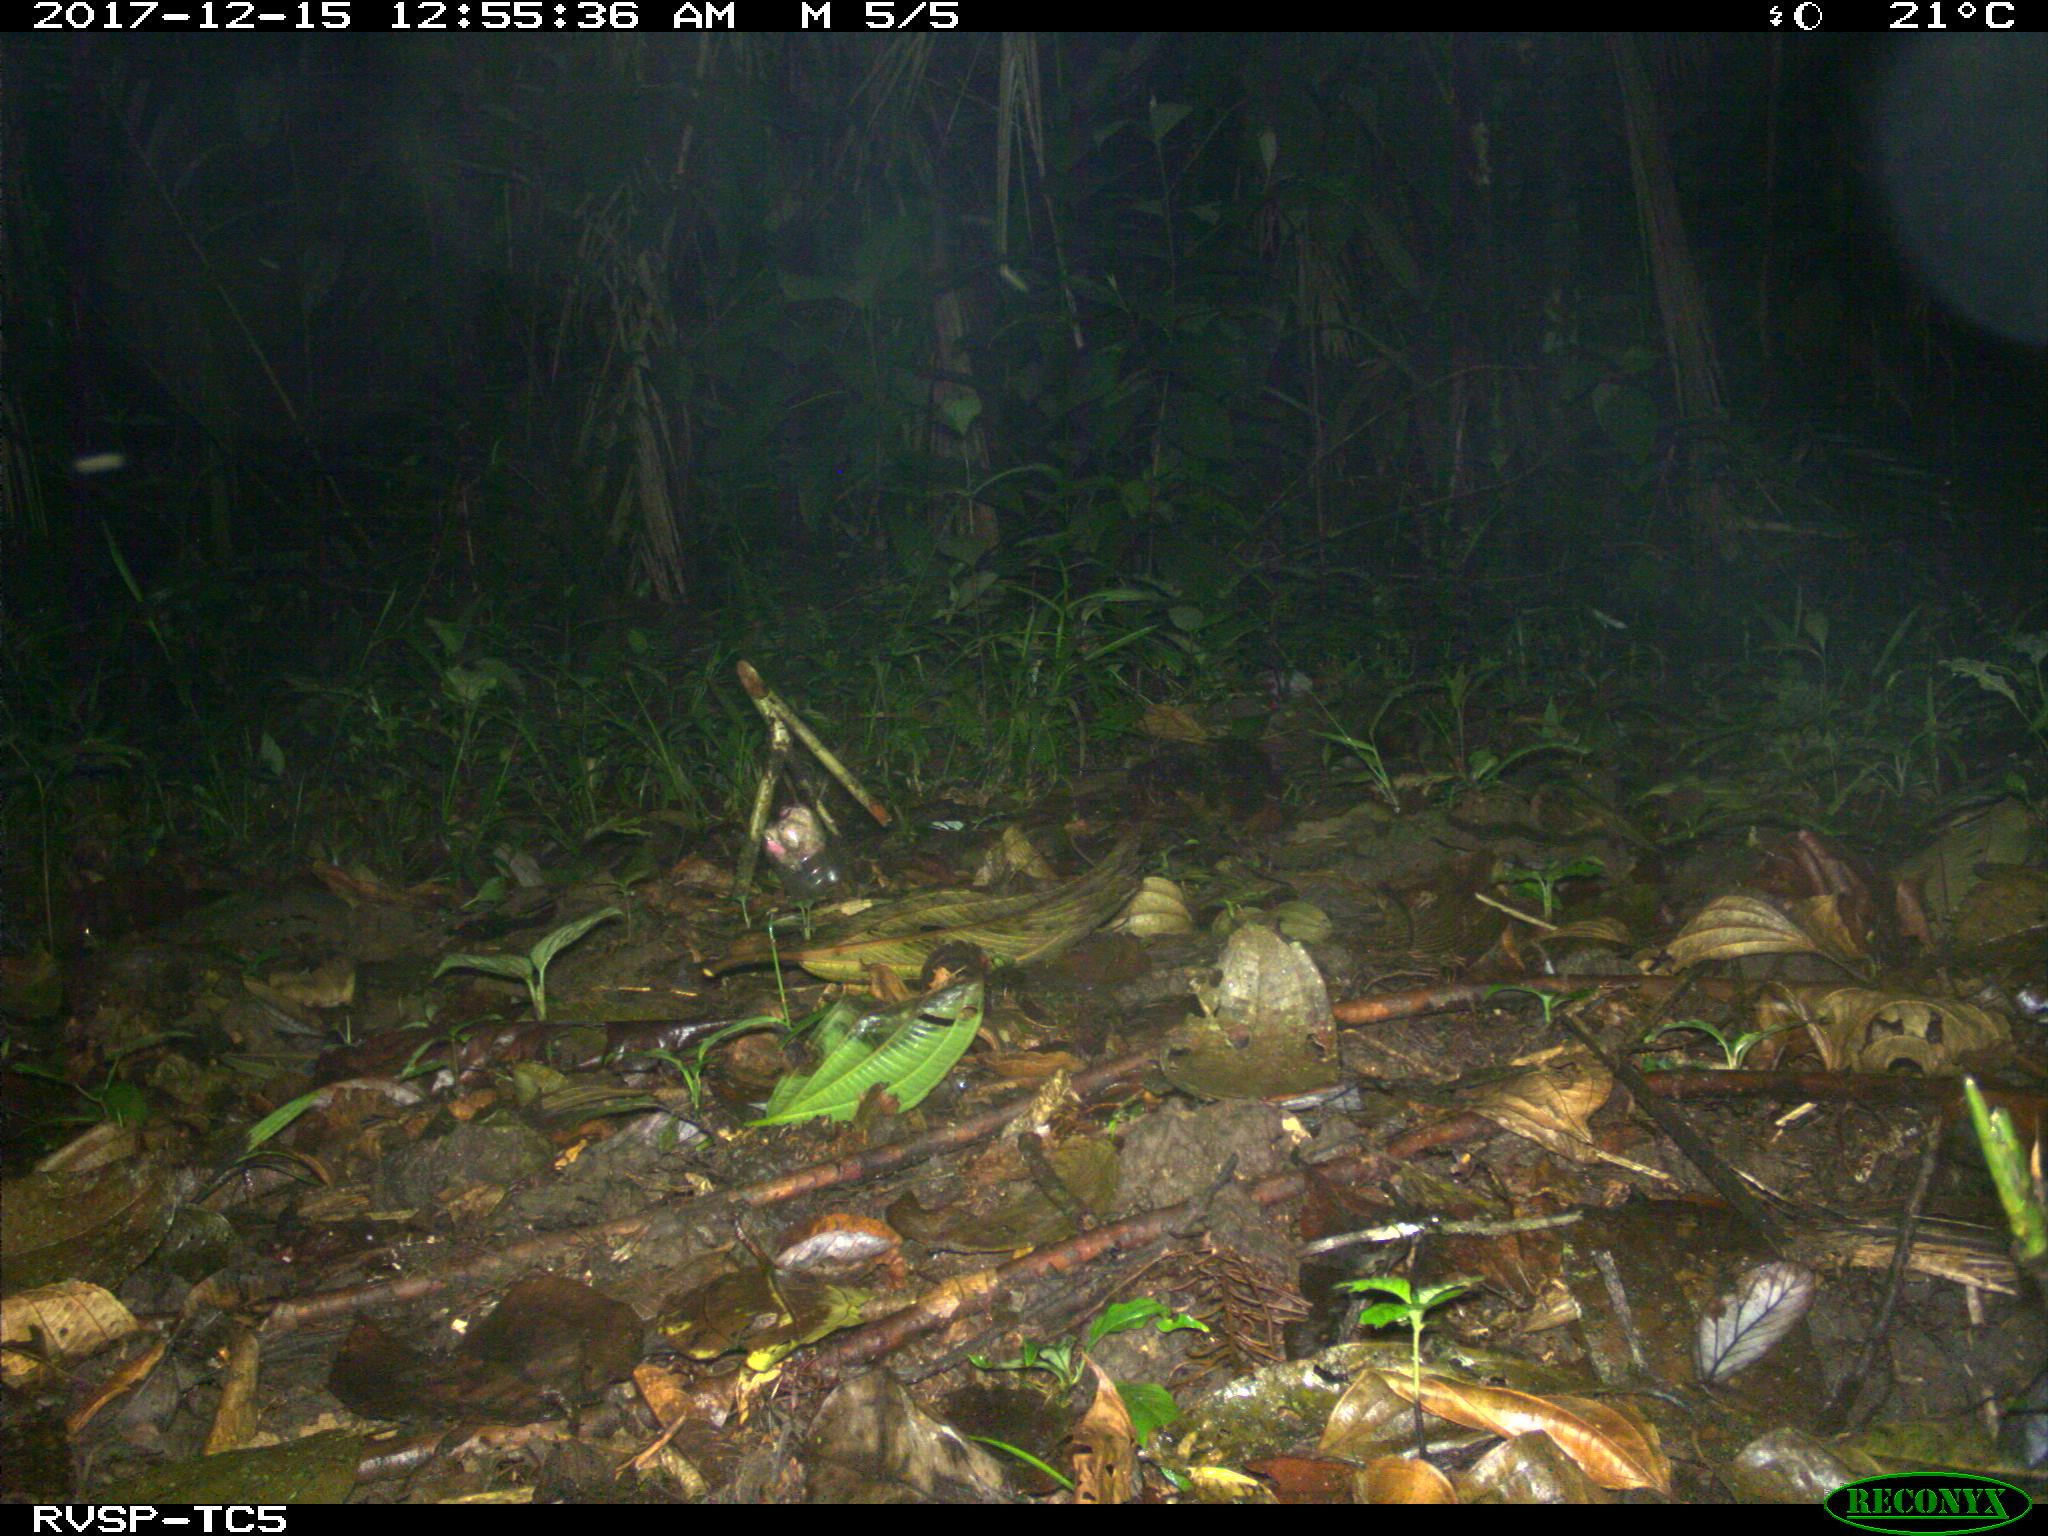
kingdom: Animalia
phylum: Chordata
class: Mammalia
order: Cingulata
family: Dasypodidae
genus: Dasypus
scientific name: Dasypus novemcinctus
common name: Nine-banded armadillo
